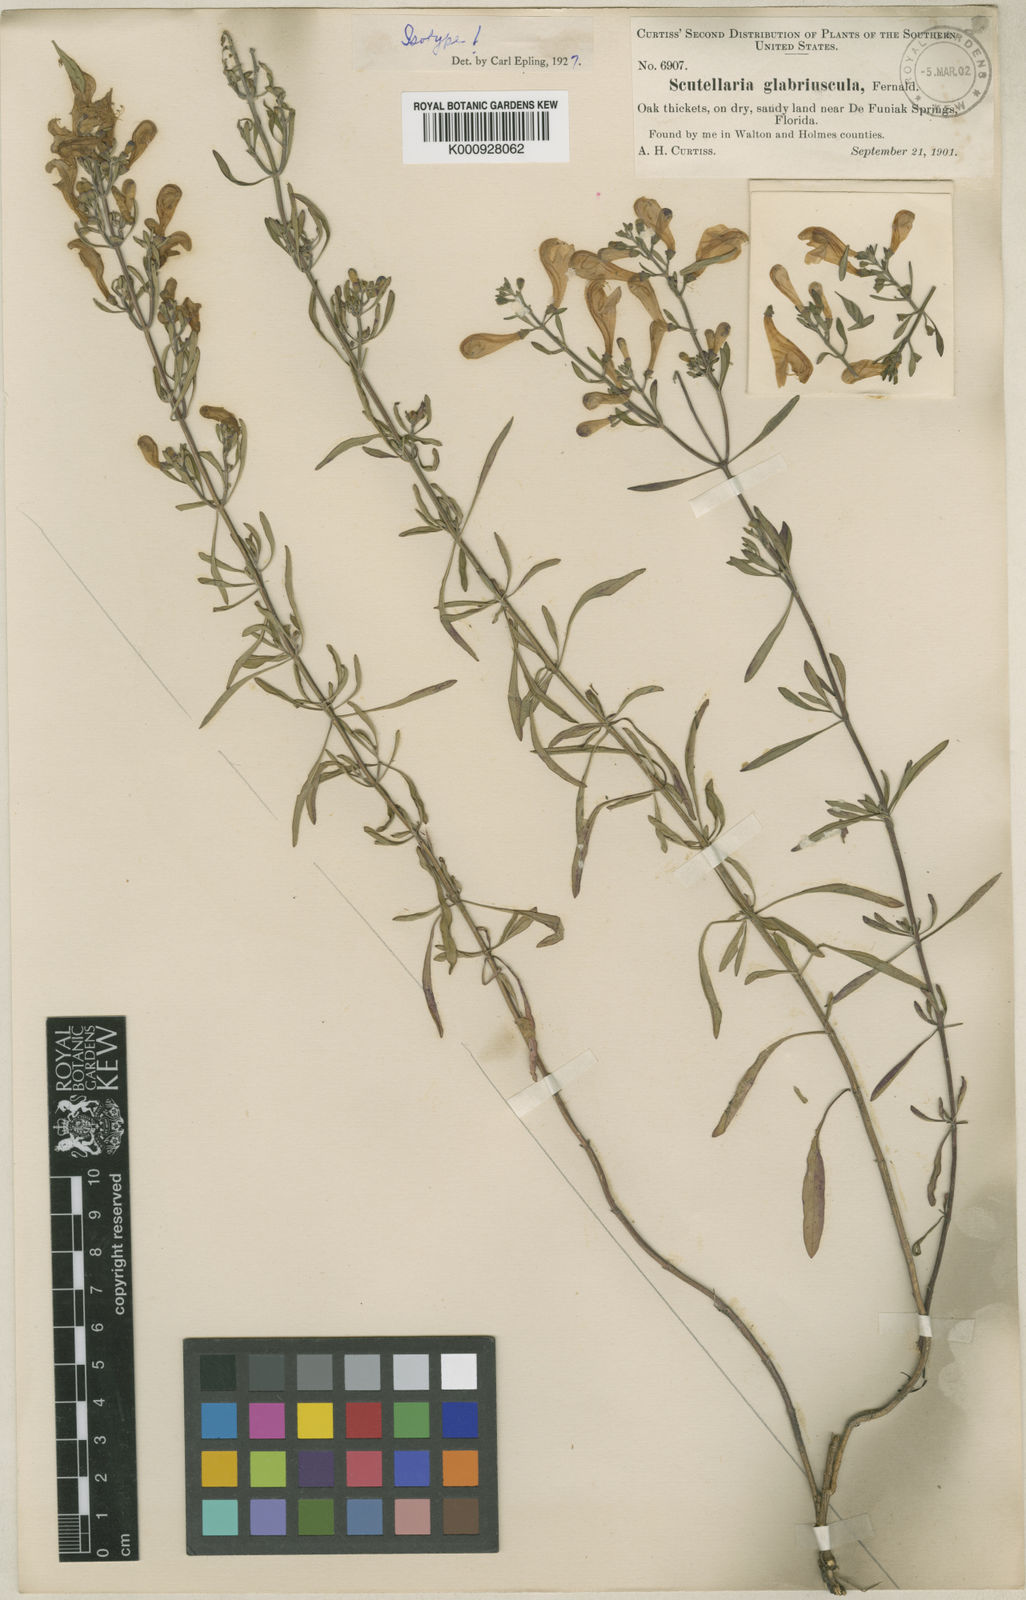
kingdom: Plantae
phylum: Tracheophyta
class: Magnoliopsida
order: Lamiales
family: Lamiaceae
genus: Scutellaria
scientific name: Scutellaria glabriuscula
